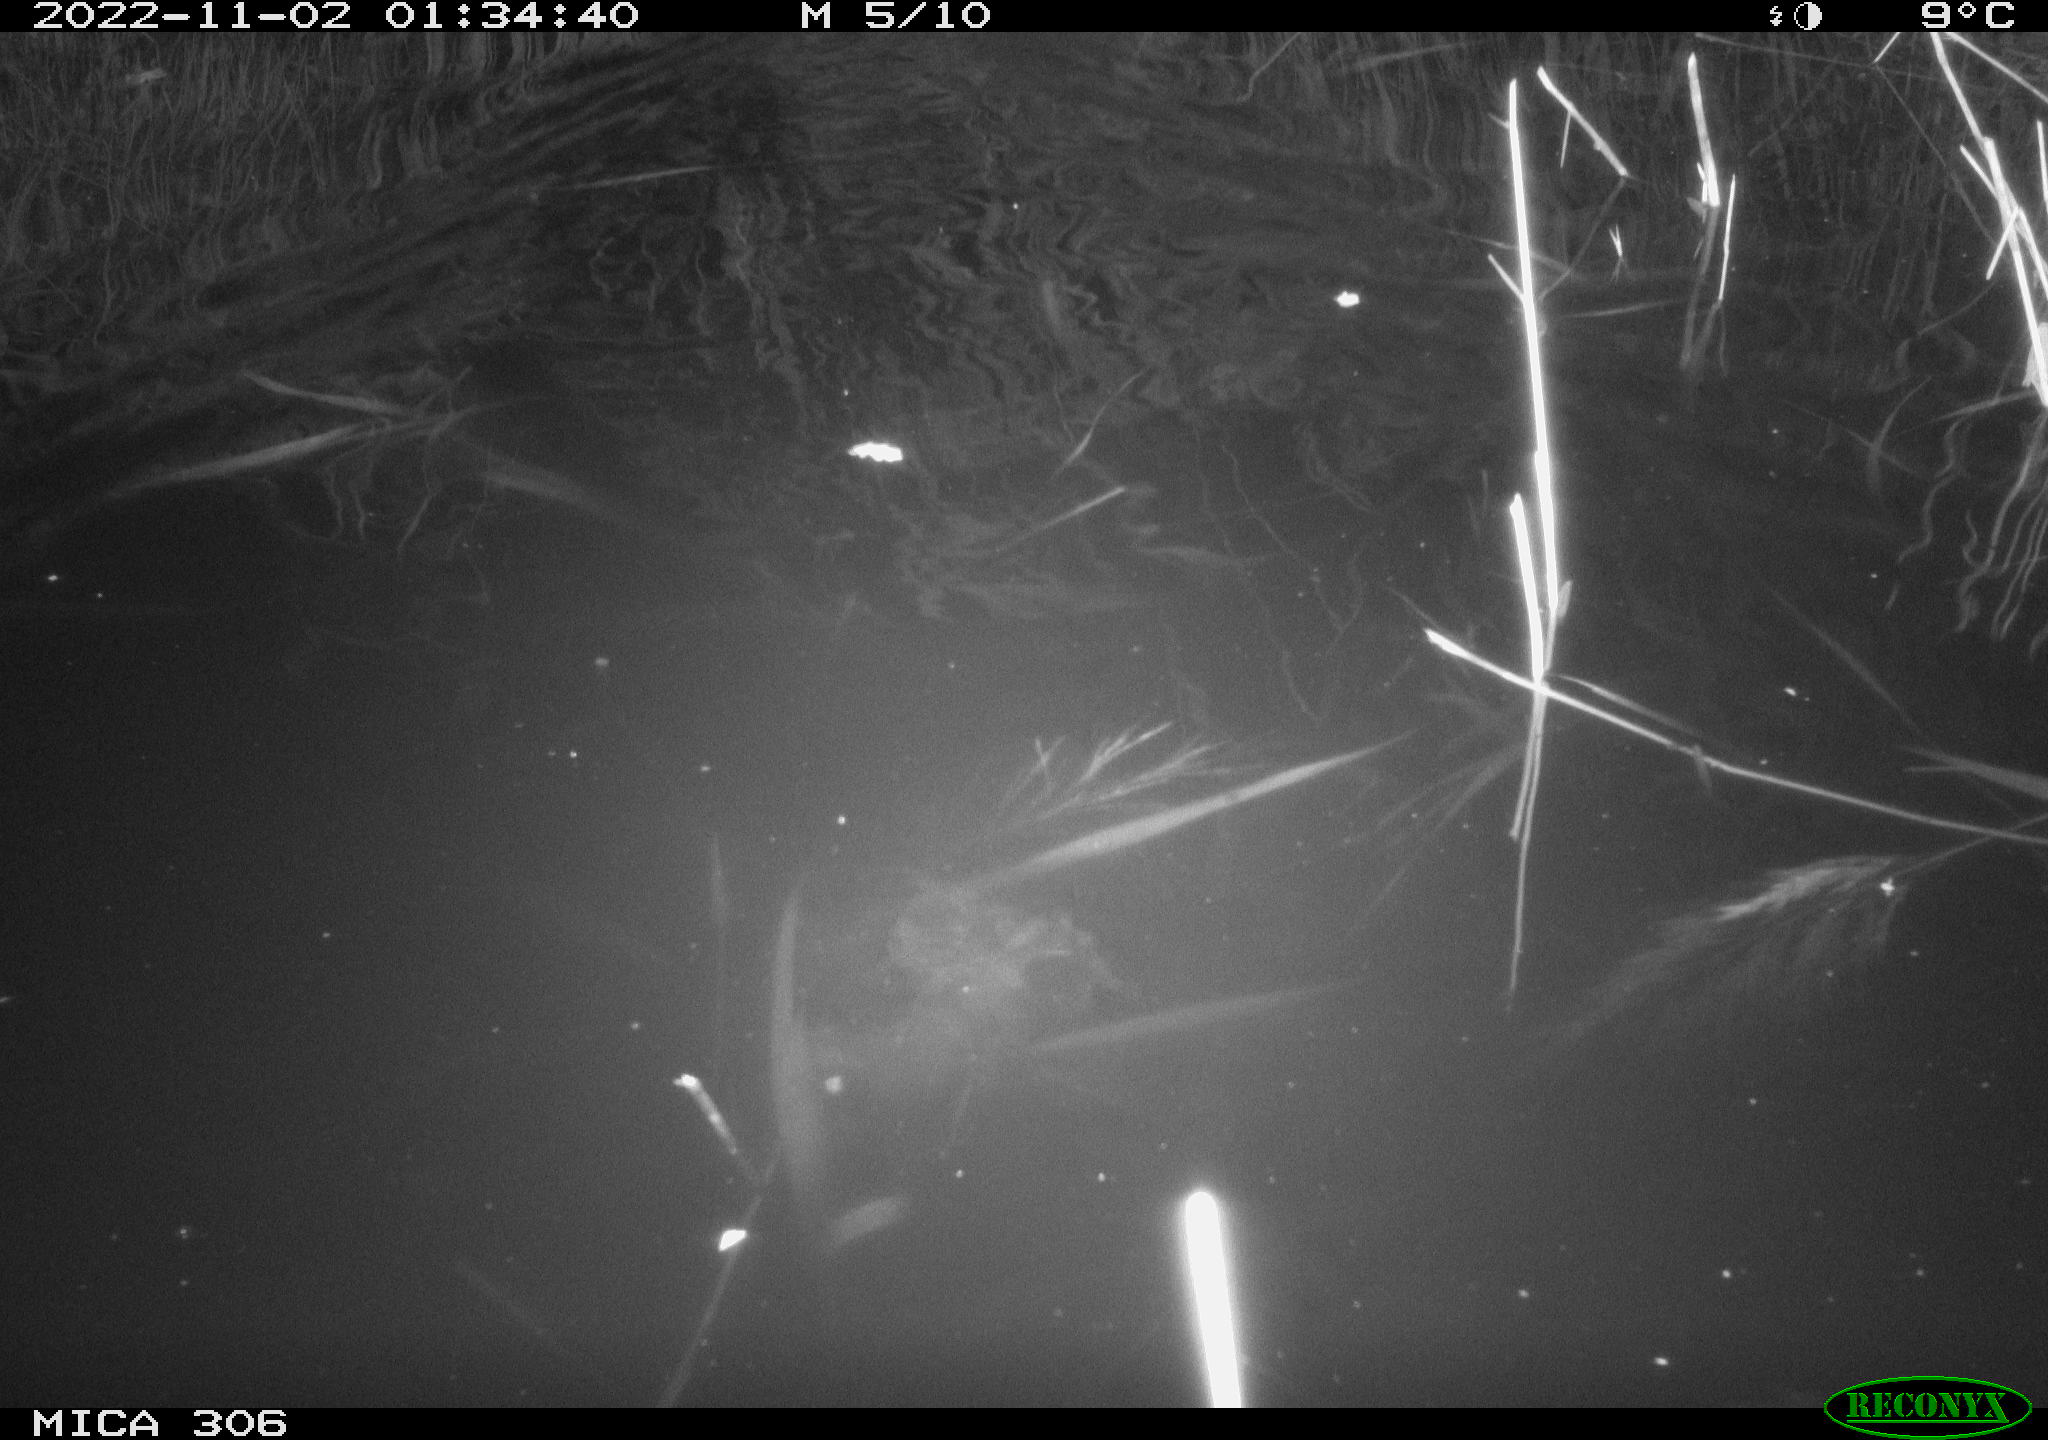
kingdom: Animalia
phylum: Chordata
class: Mammalia
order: Rodentia
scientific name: Rodentia
